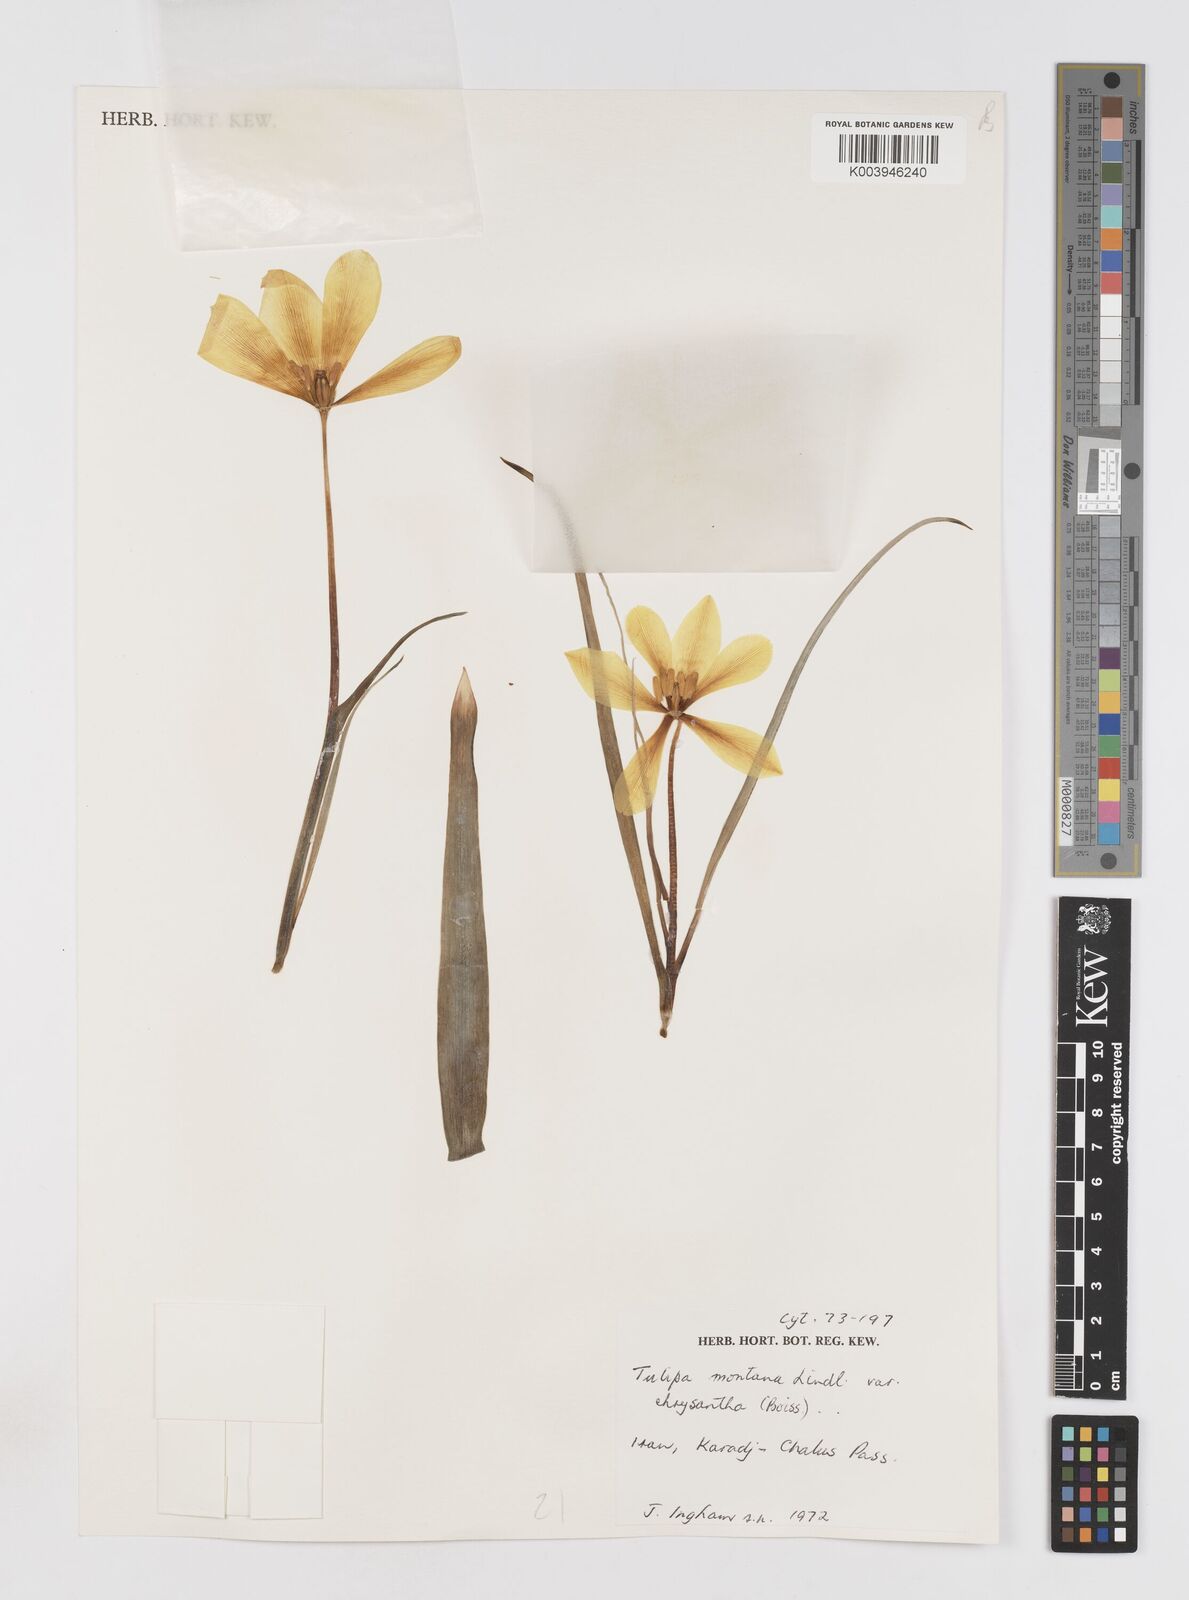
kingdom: Plantae
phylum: Tracheophyta
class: Liliopsida
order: Liliales
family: Liliaceae
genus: Tulipa
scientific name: Tulipa montana
